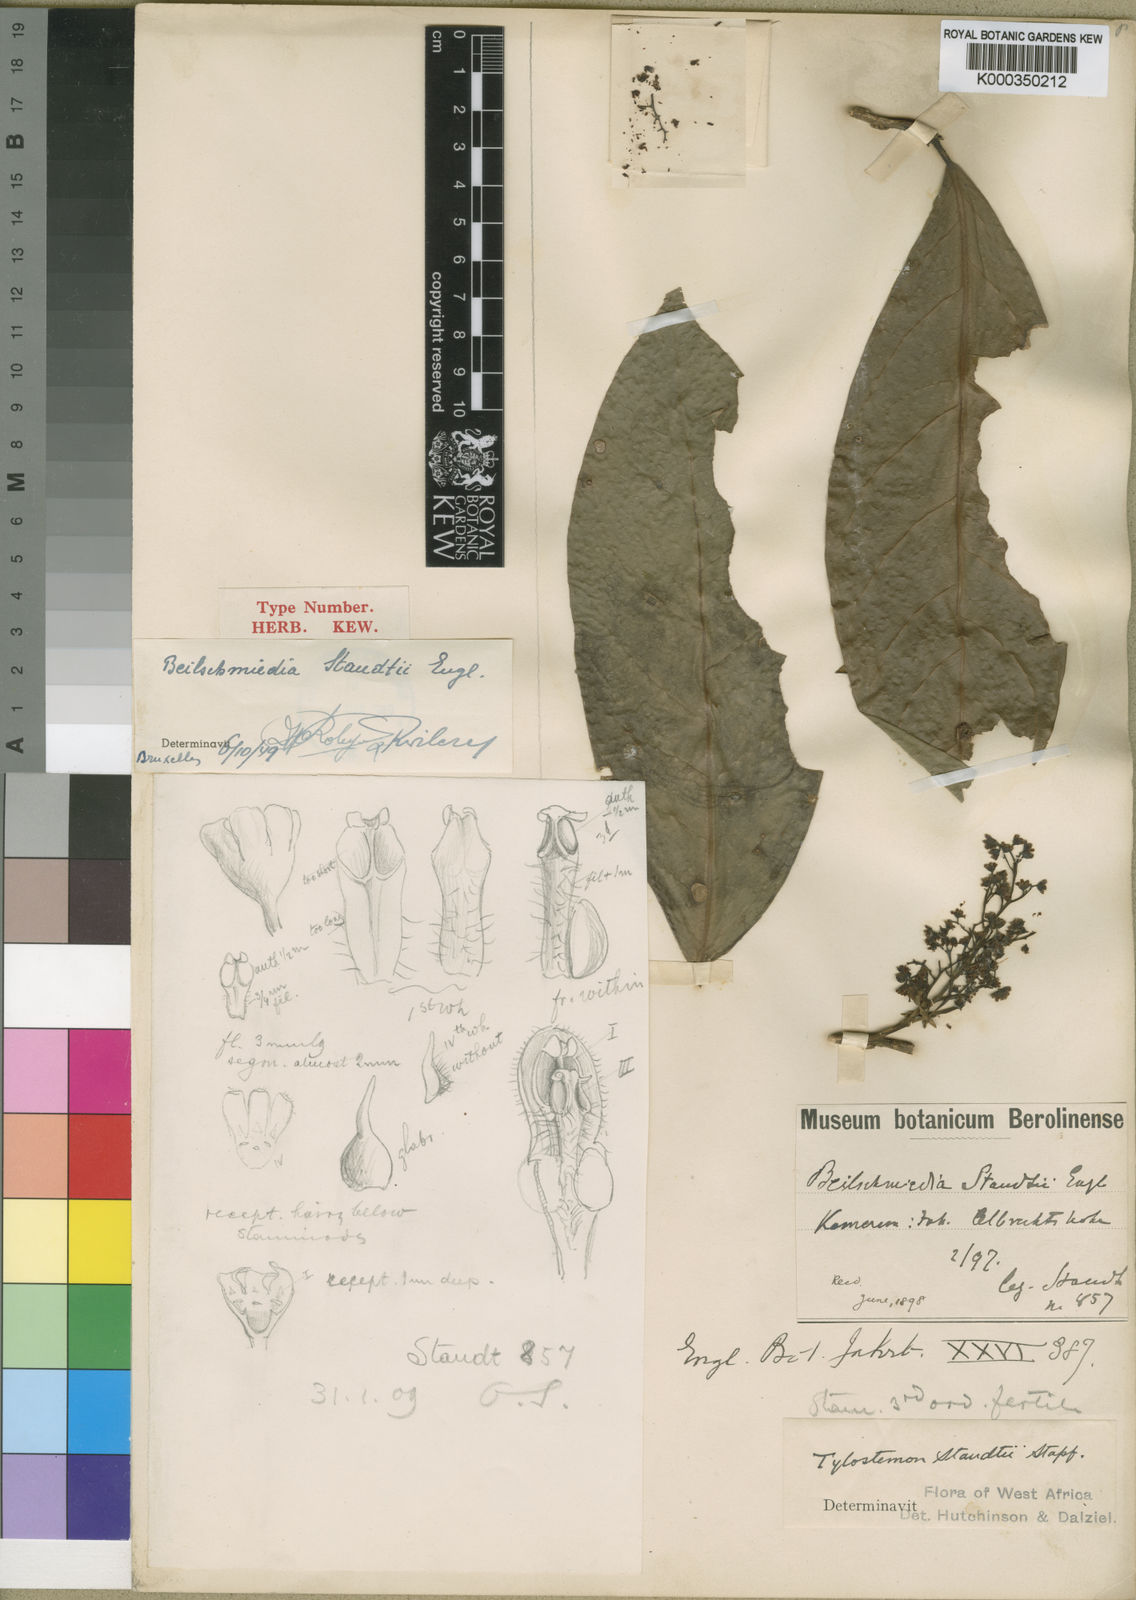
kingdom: Plantae
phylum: Tracheophyta
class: Magnoliopsida
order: Laurales
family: Lauraceae
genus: Beilschmiedia
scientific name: Beilschmiedia staudtii
